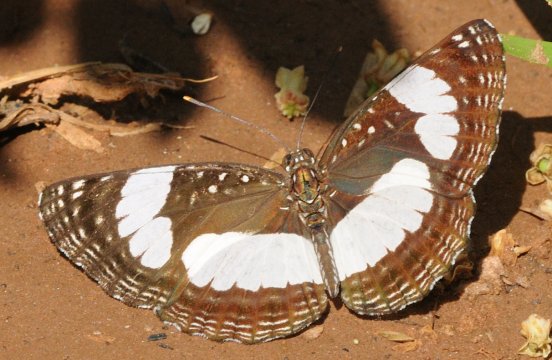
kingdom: Animalia
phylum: Arthropoda
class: Insecta
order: Lepidoptera
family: Nymphalidae
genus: Neptis
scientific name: Neptis serena
